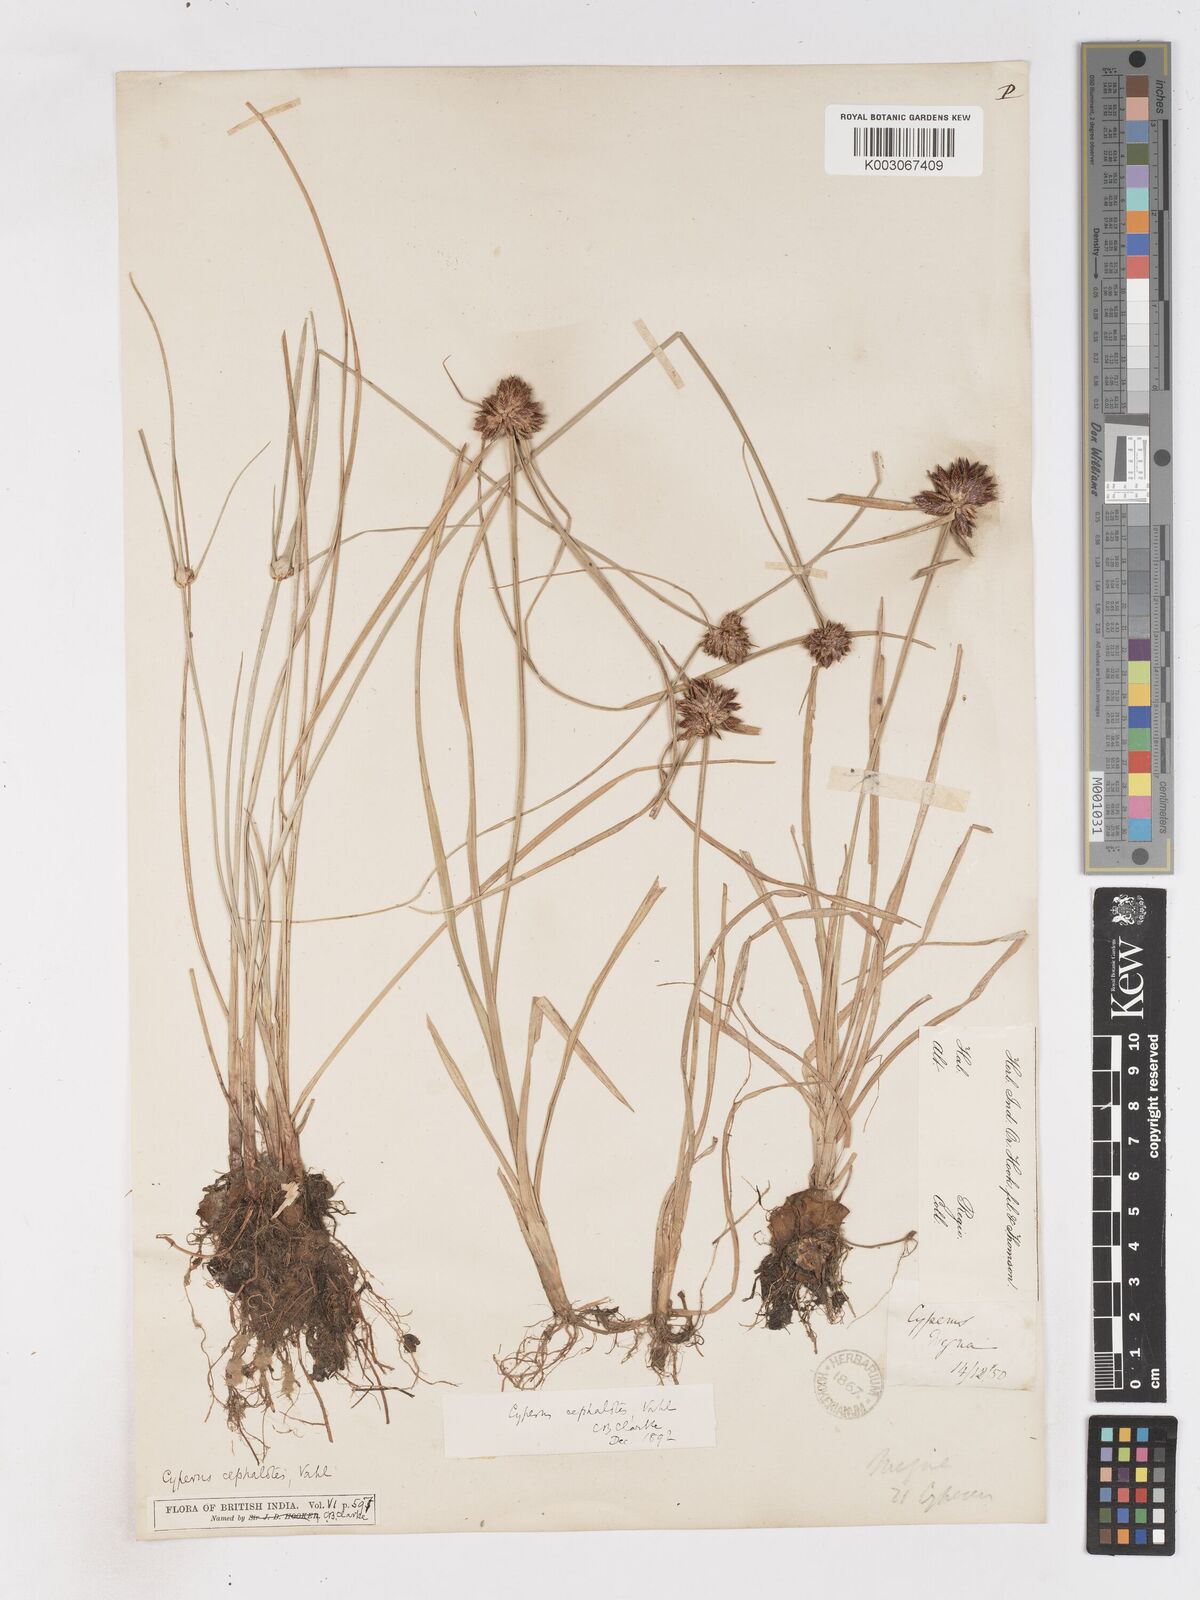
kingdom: Plantae
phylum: Tracheophyta
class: Liliopsida
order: Poales
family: Cyperaceae
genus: Cyperus
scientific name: Cyperus cephalotes
